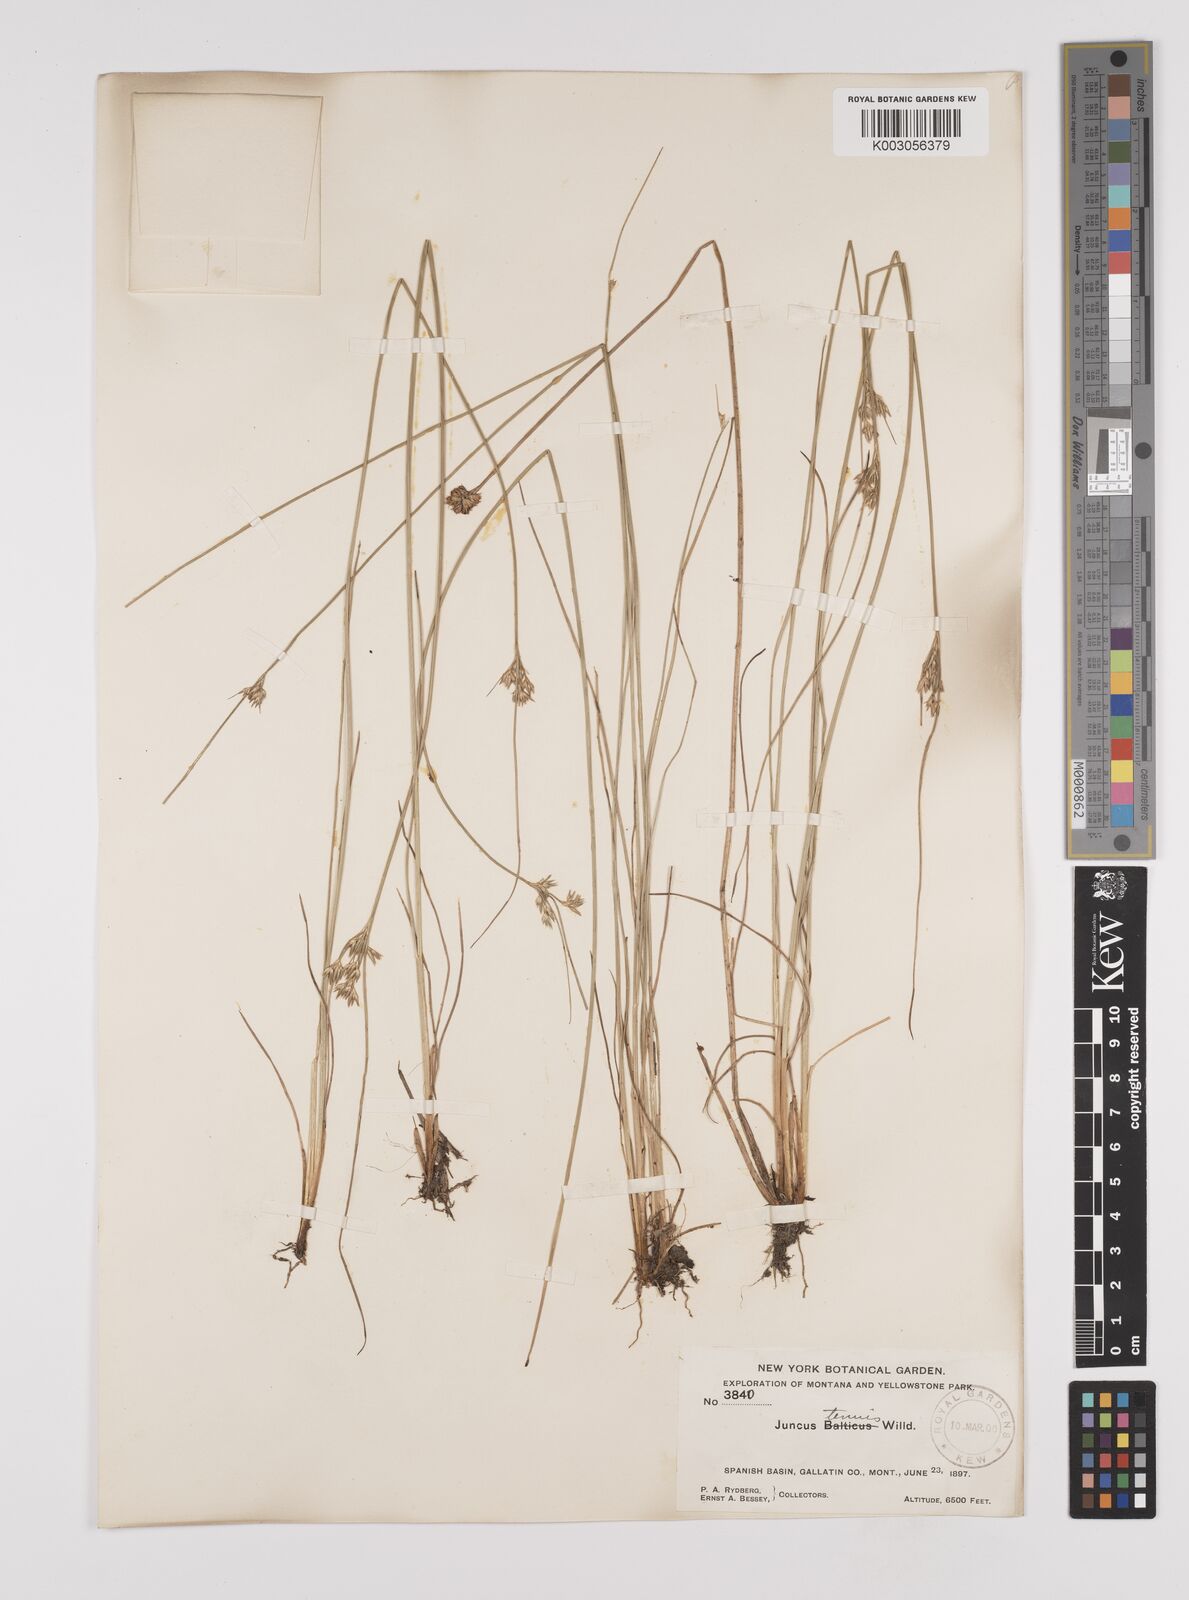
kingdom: Plantae
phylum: Tracheophyta
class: Liliopsida
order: Poales
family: Juncaceae
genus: Juncus
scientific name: Juncus tenuis
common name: Slender rush
